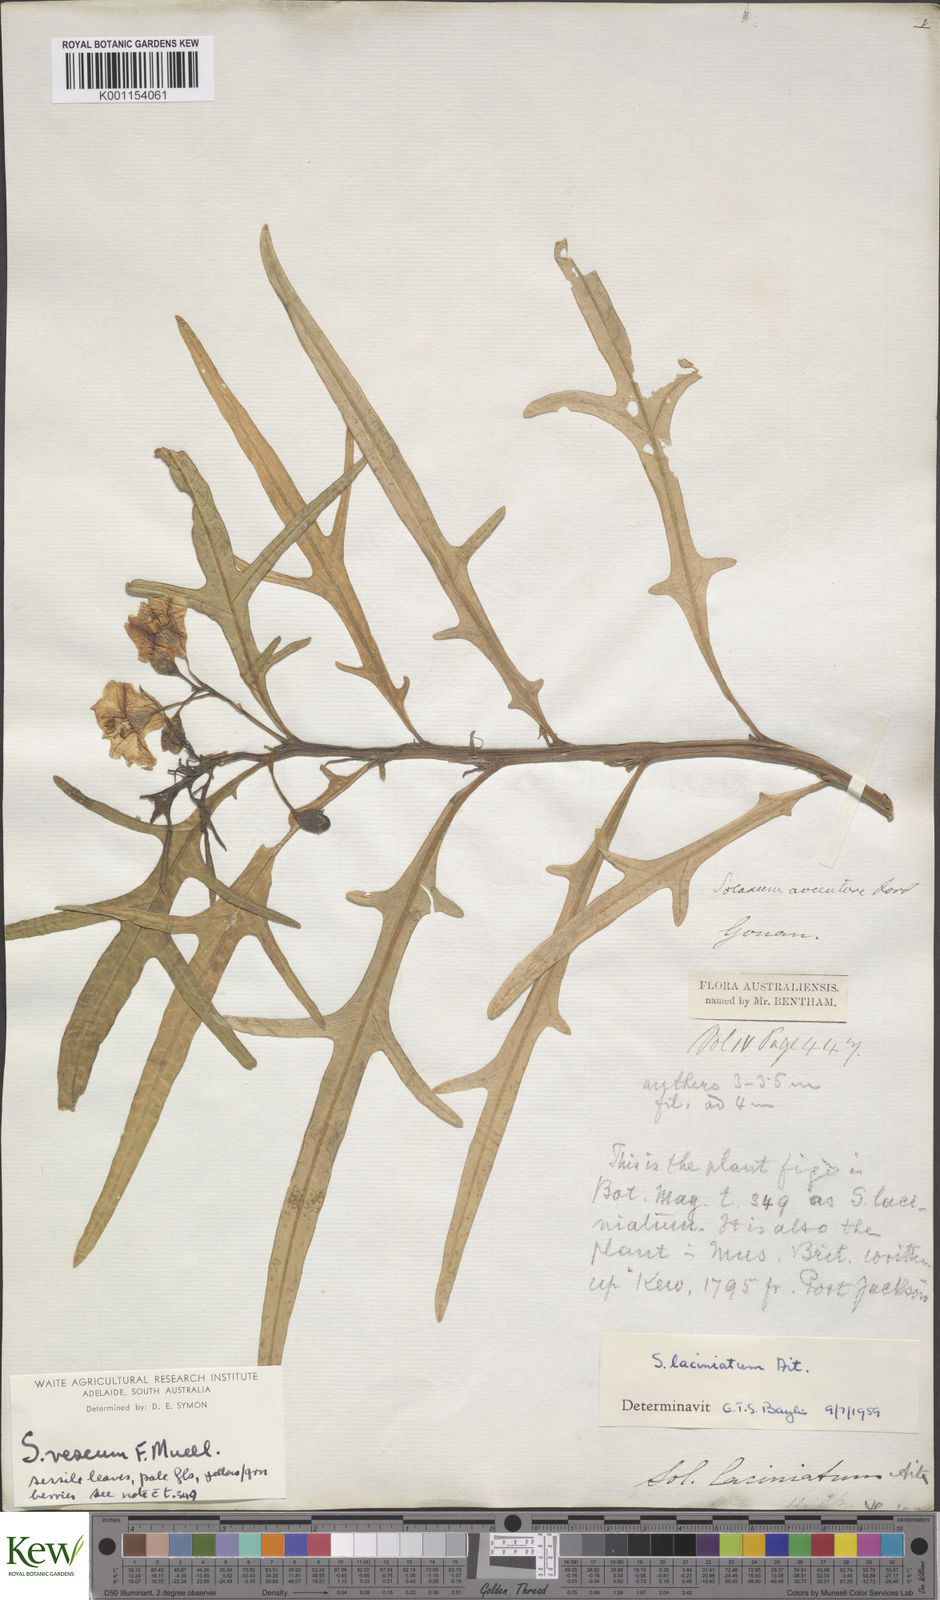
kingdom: Plantae
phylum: Tracheophyta
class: Magnoliopsida
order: Solanales
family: Solanaceae
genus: Solanum
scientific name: Solanum vescum
